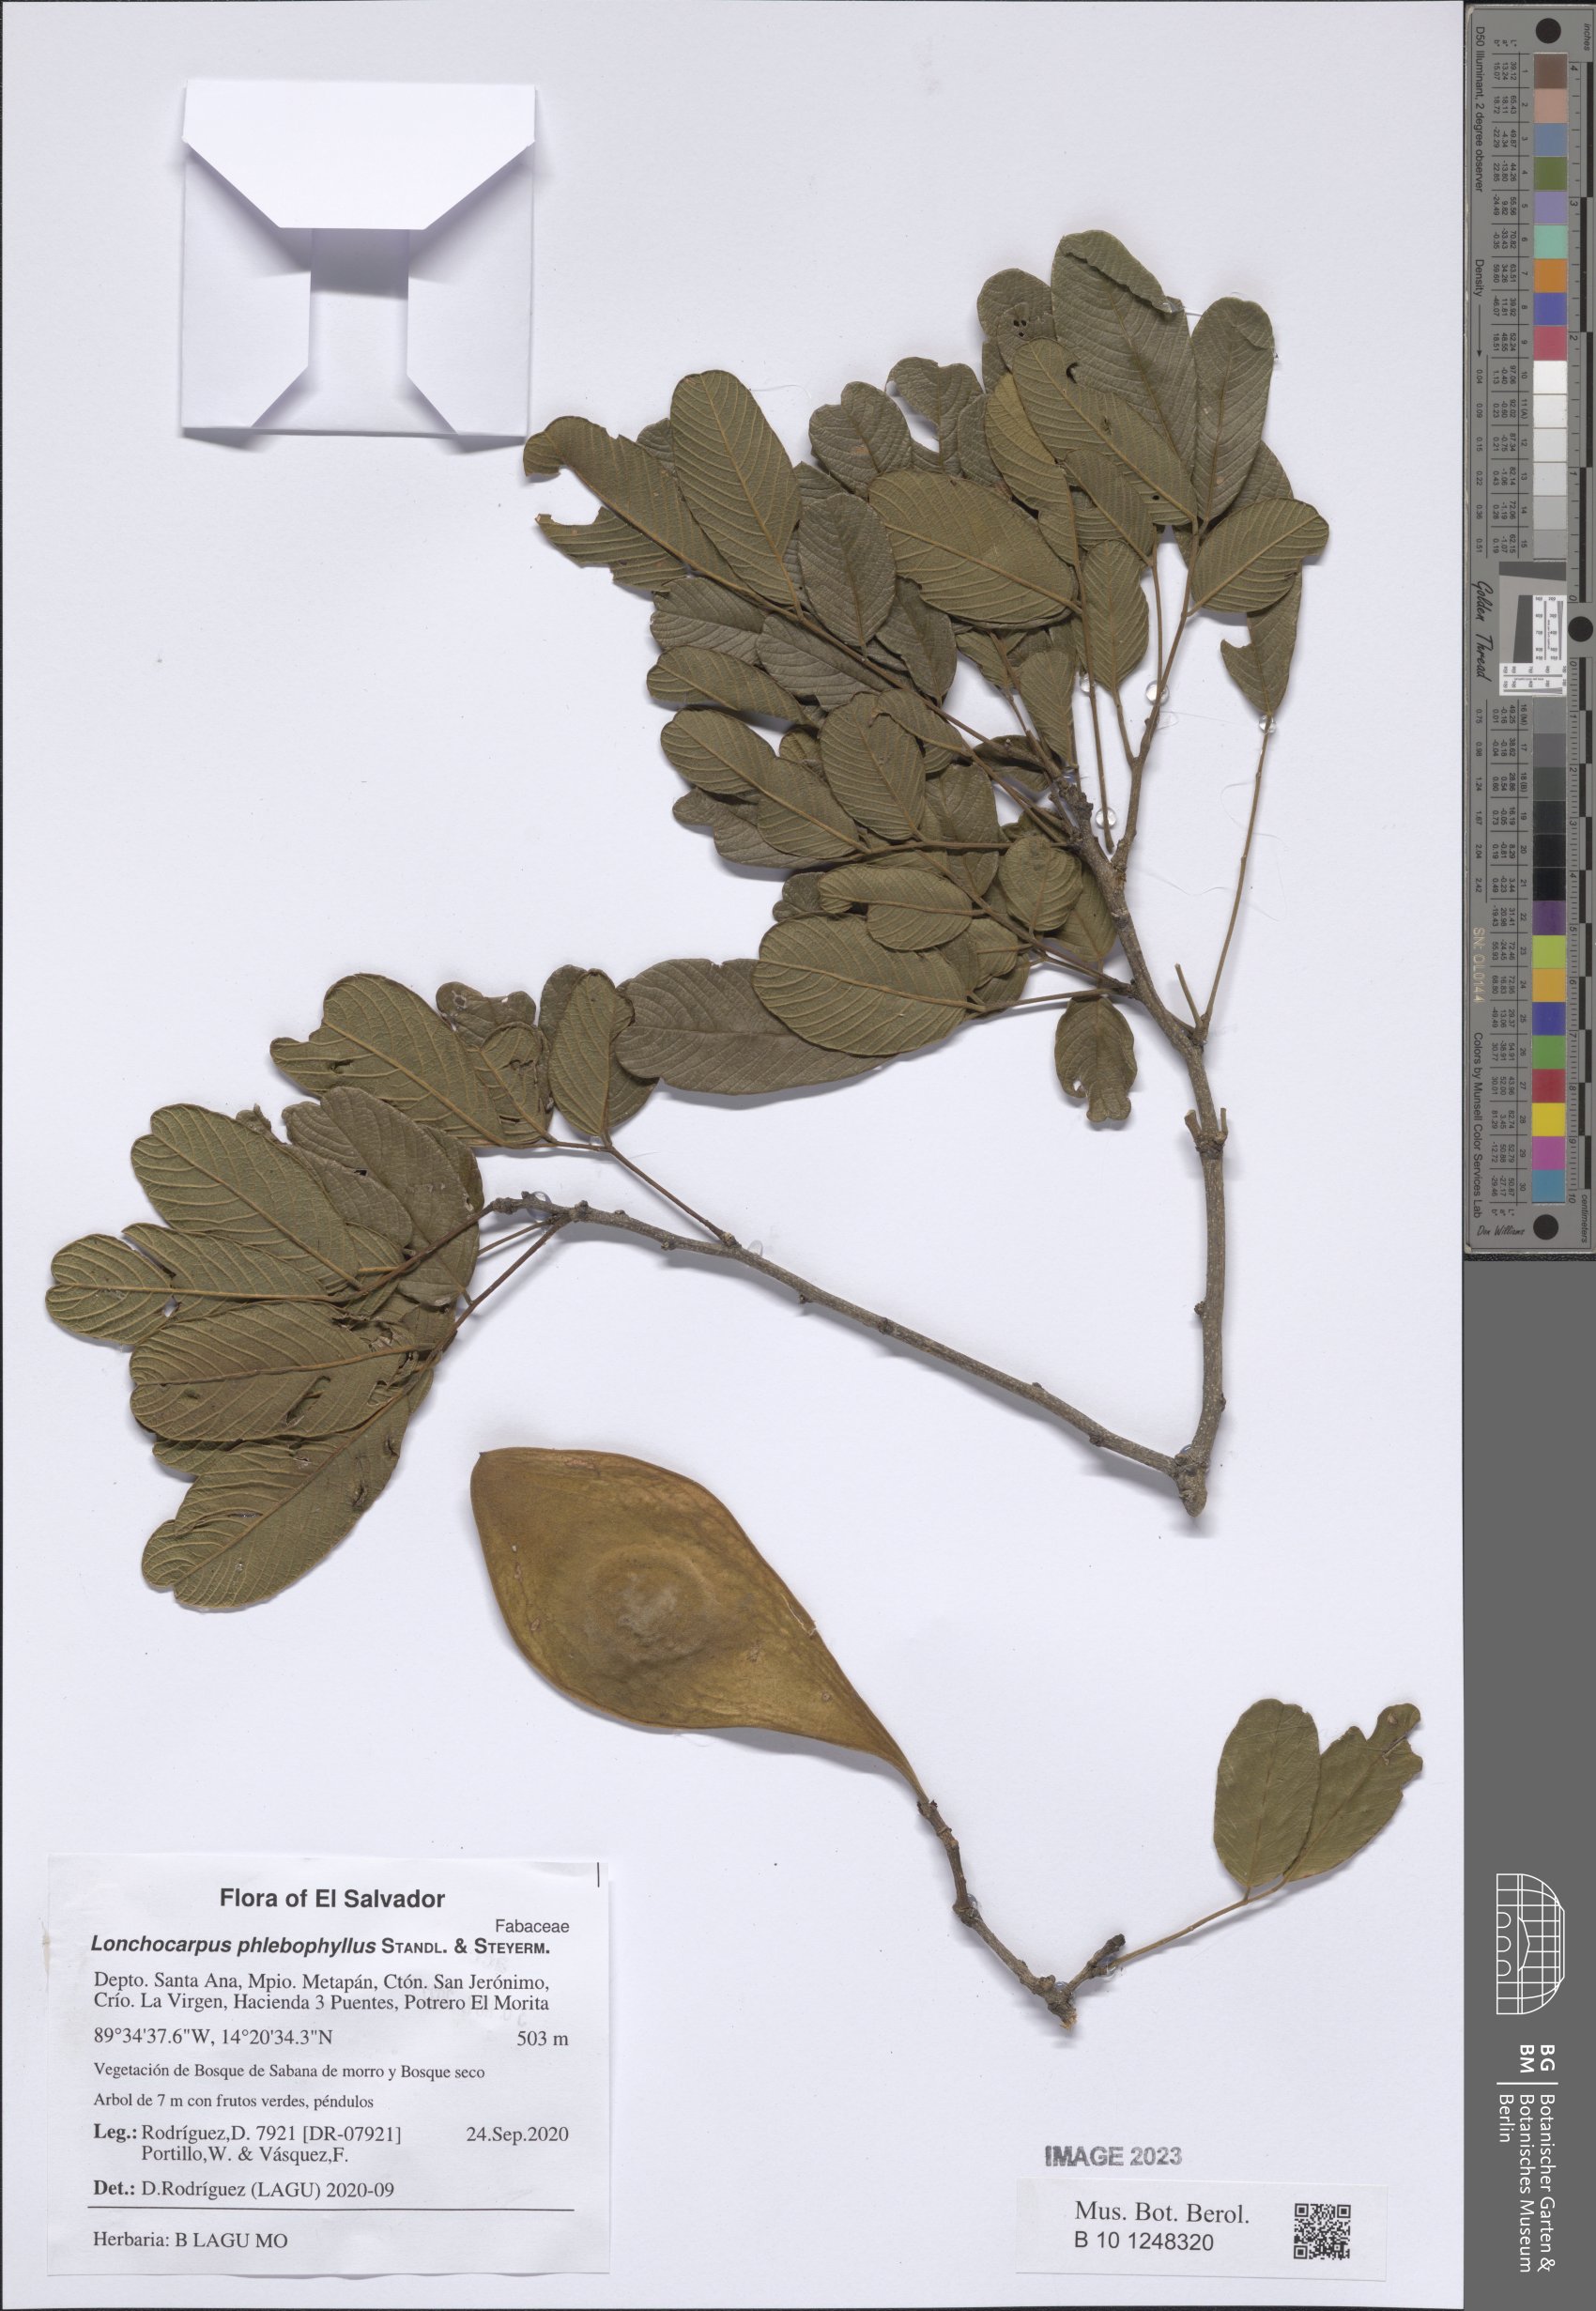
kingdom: Plantae
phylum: Tracheophyta
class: Magnoliopsida
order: Fabales
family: Fabaceae
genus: Lonchocarpus
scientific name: Lonchocarpus phlebophyllus
